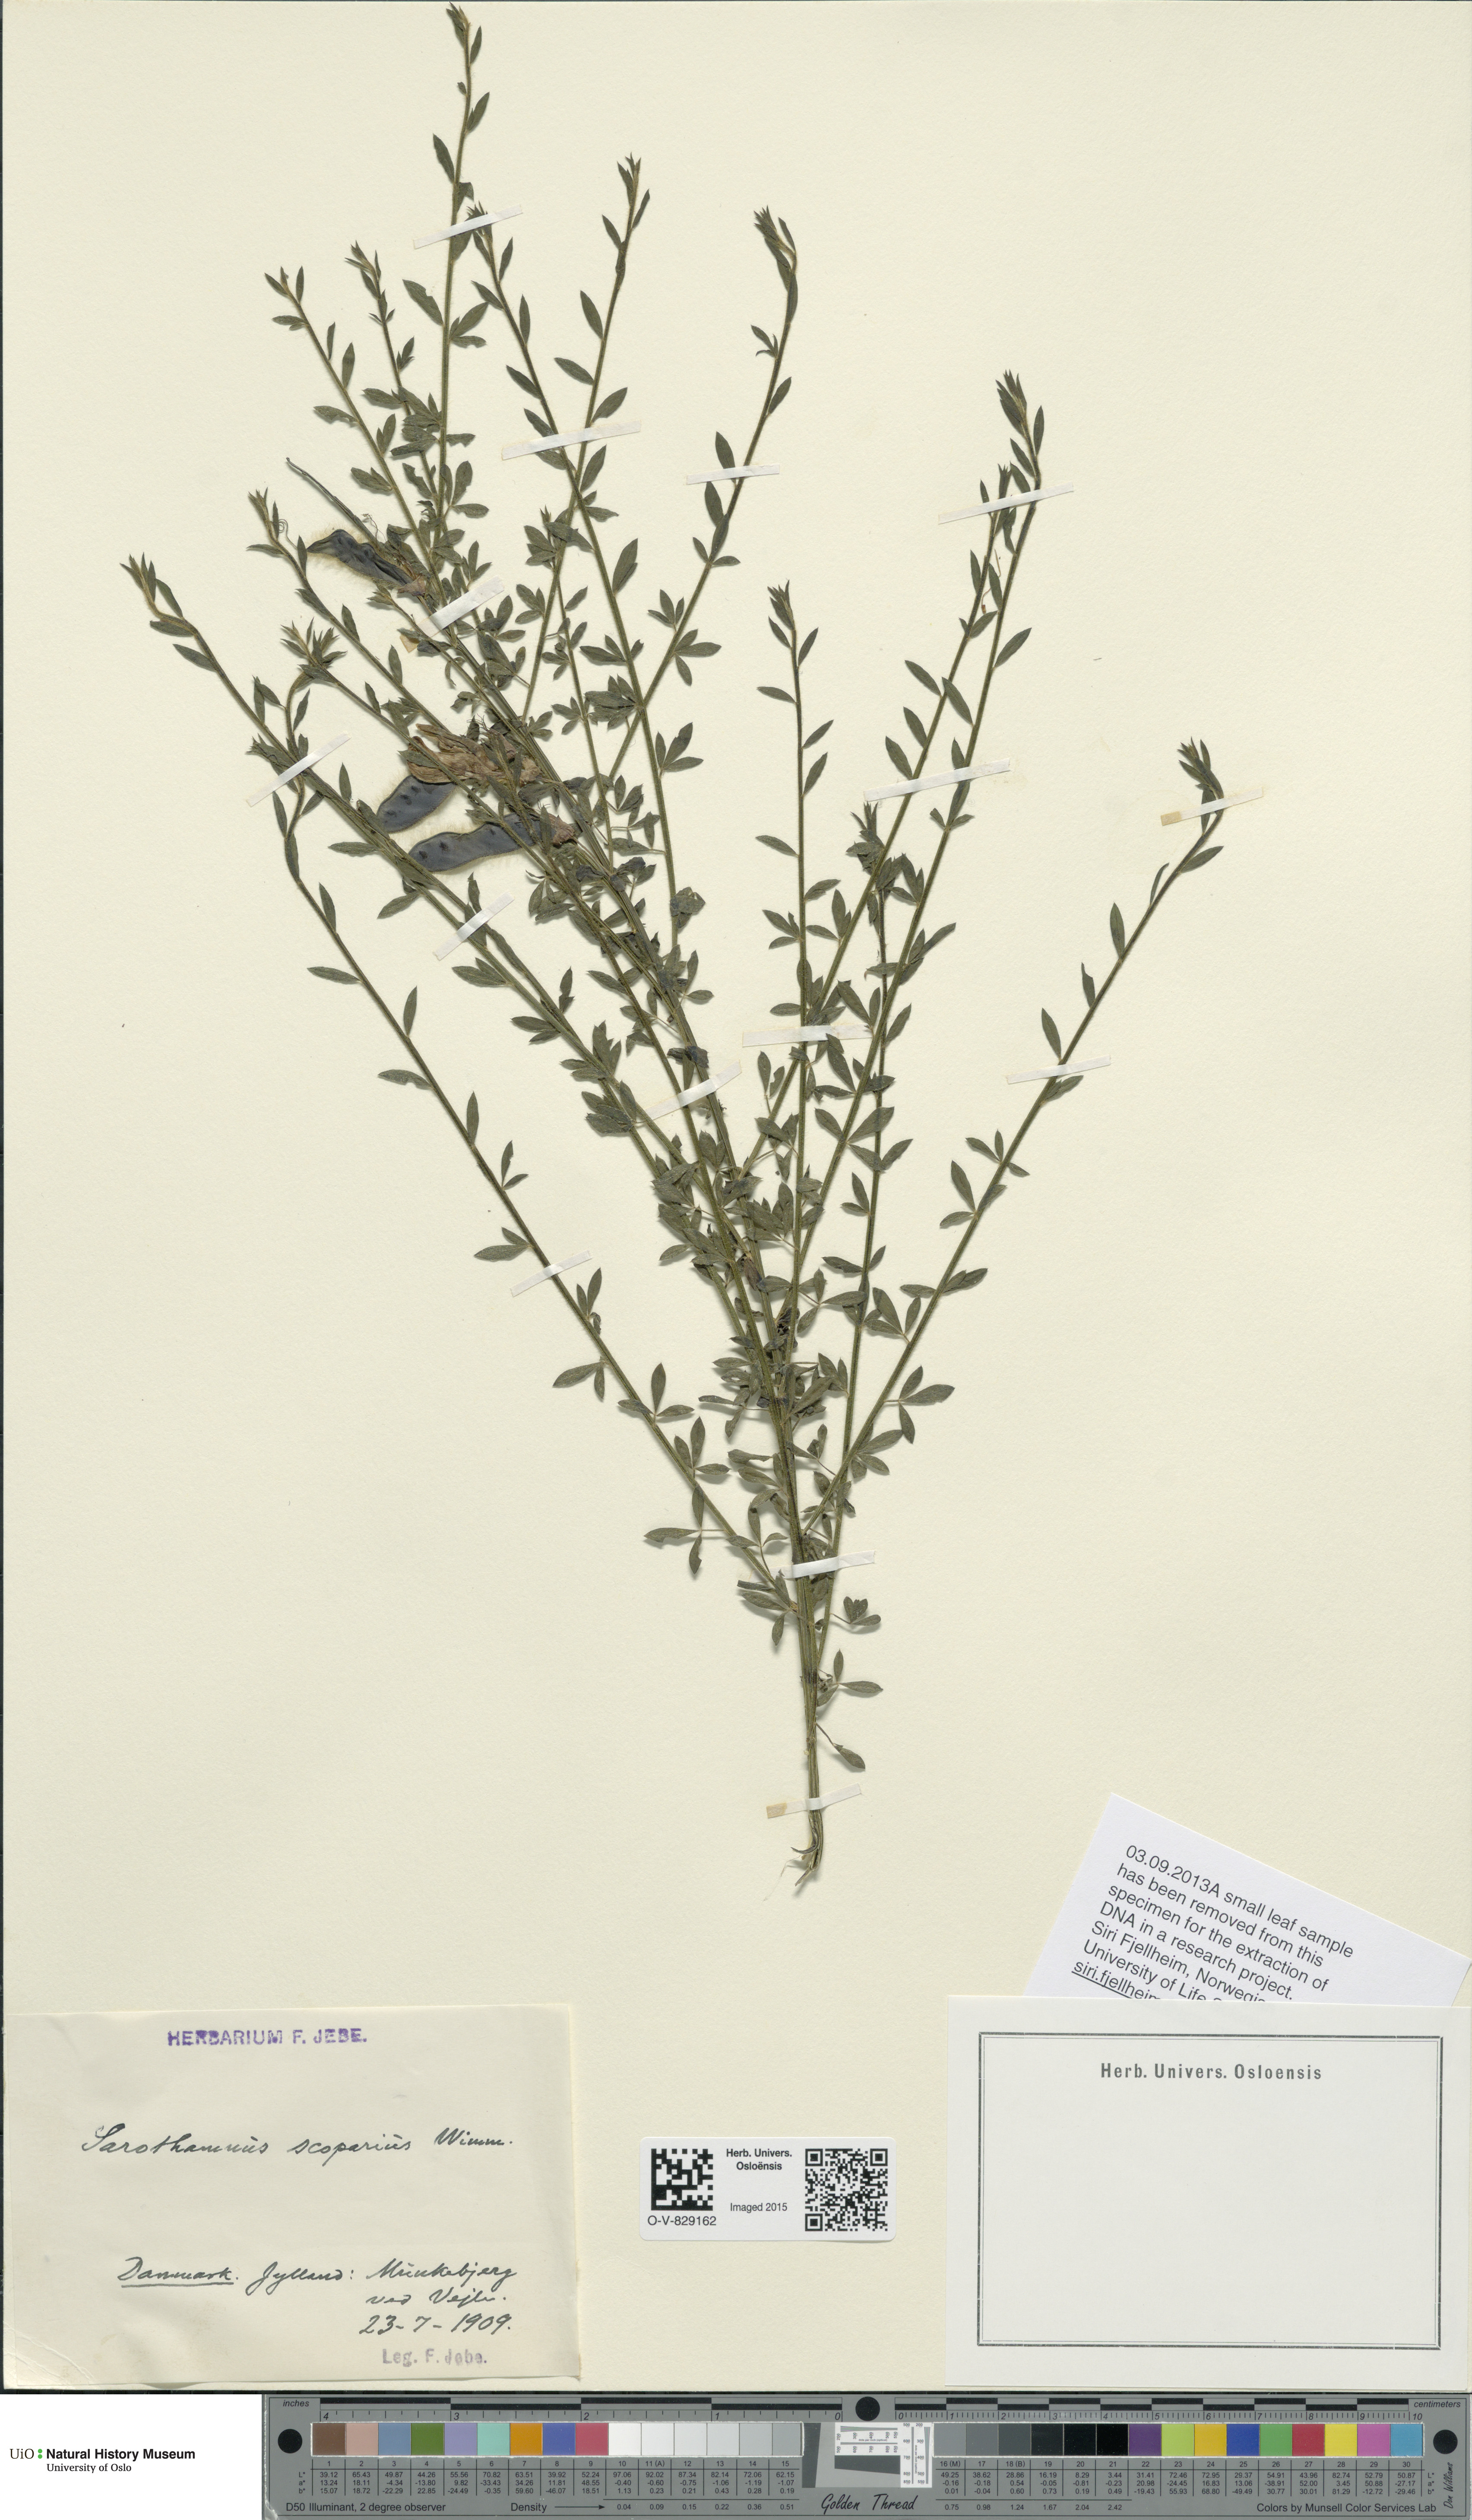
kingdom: Plantae
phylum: Tracheophyta
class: Magnoliopsida
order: Fabales
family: Fabaceae
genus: Cytisus
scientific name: Cytisus scoparius
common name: Scotch broom
